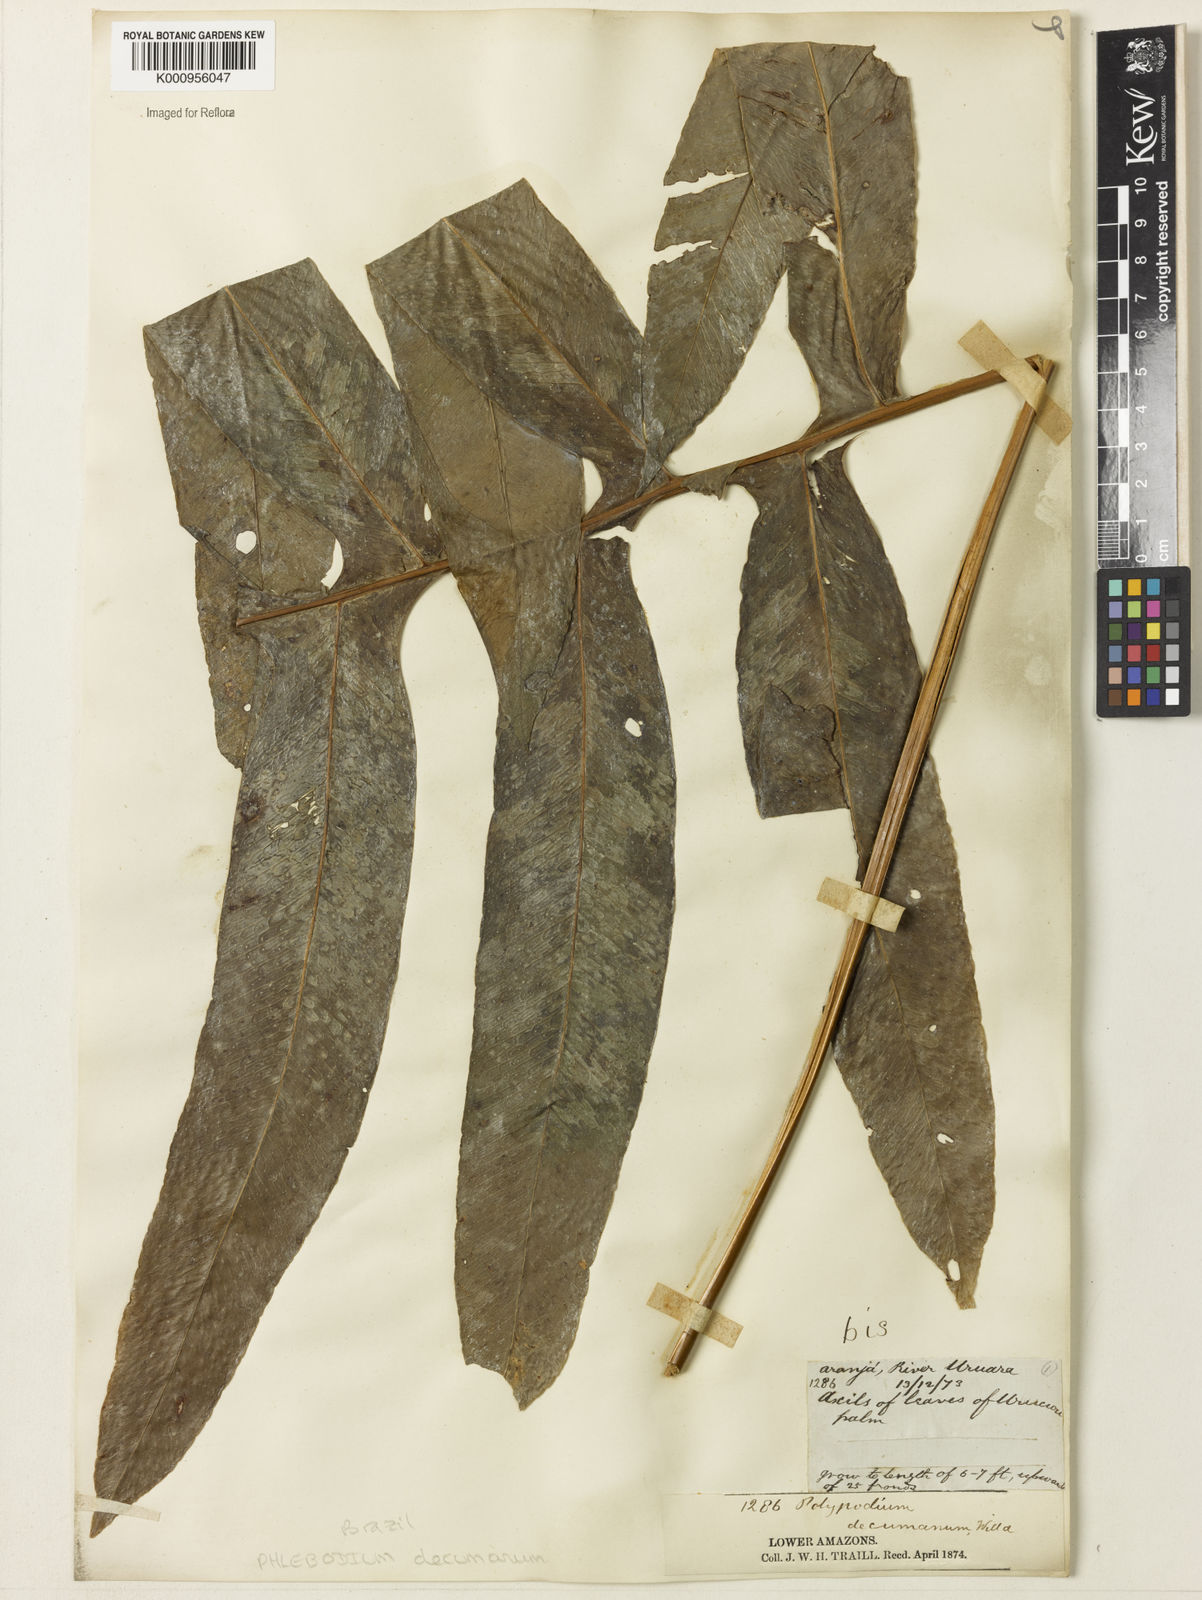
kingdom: Plantae
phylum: Tracheophyta
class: Polypodiopsida
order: Polypodiales
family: Polypodiaceae
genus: Phlebodium
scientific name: Phlebodium decumanum
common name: Golden polypod
